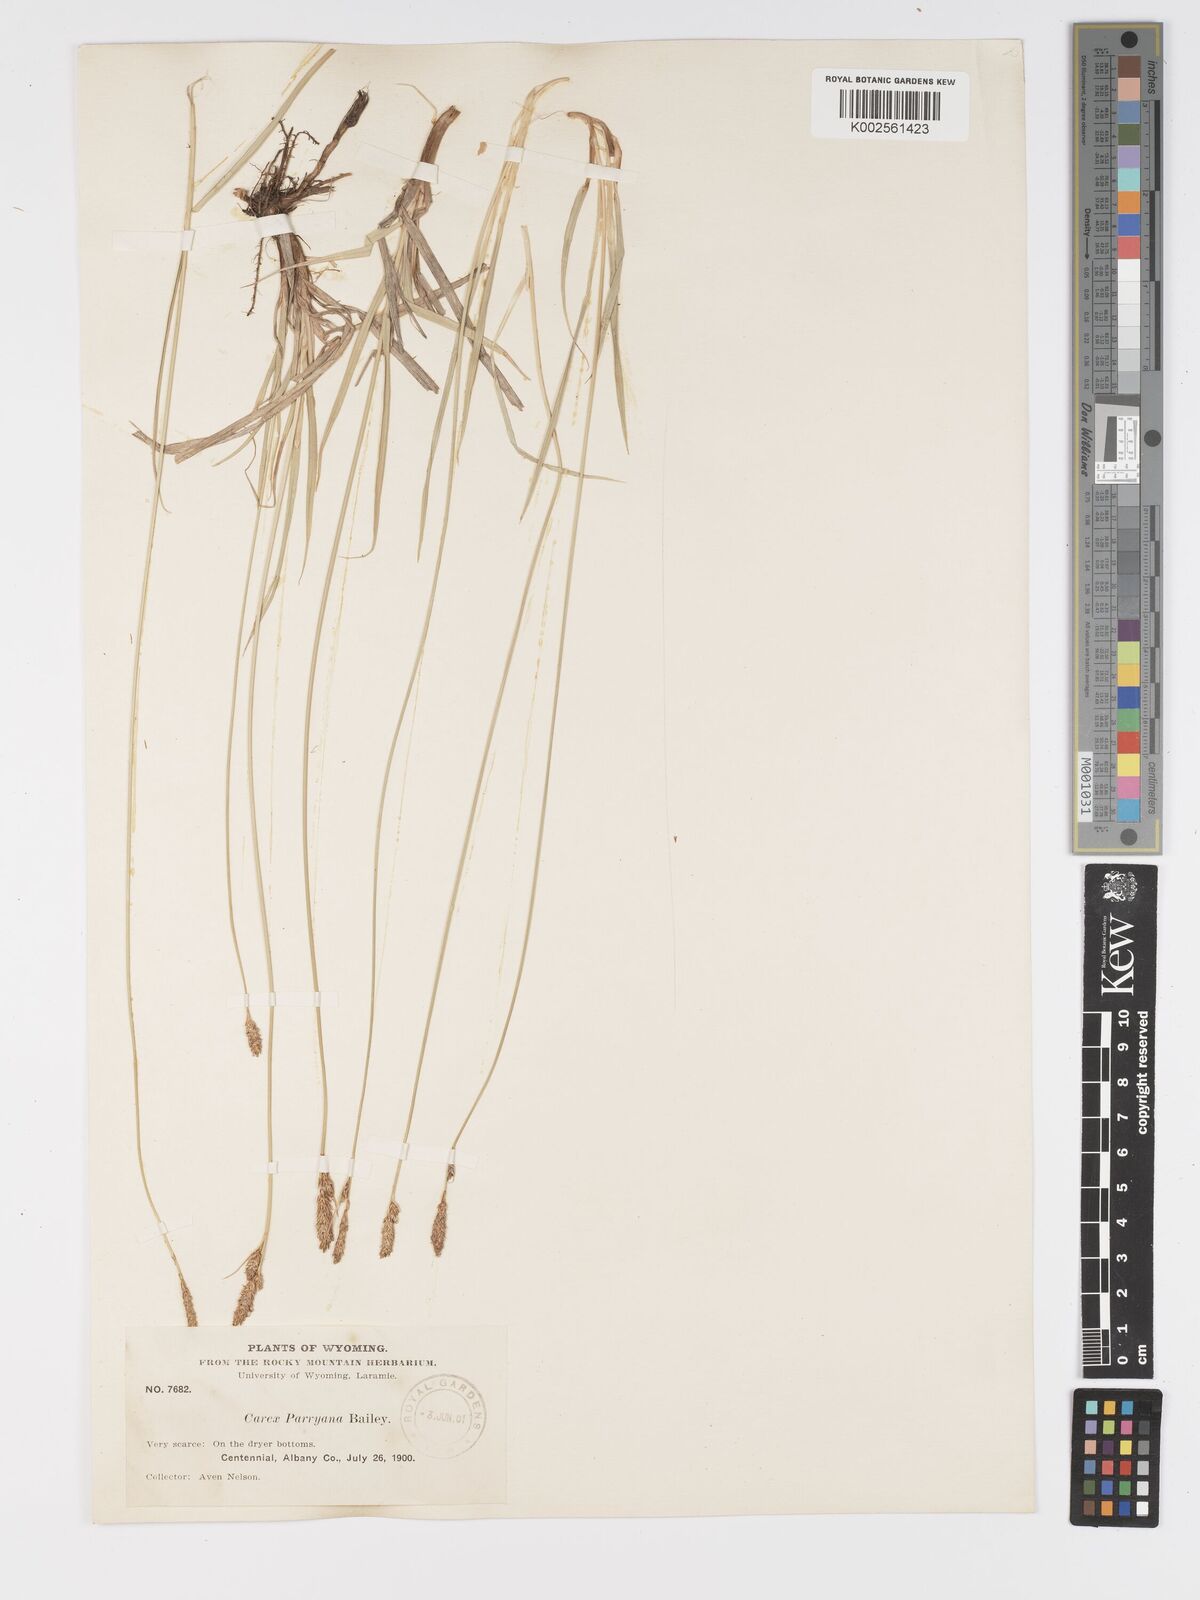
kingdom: Plantae
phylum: Tracheophyta
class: Liliopsida
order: Poales
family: Cyperaceae
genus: Carex
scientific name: Carex hallii
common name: Deer sedge
